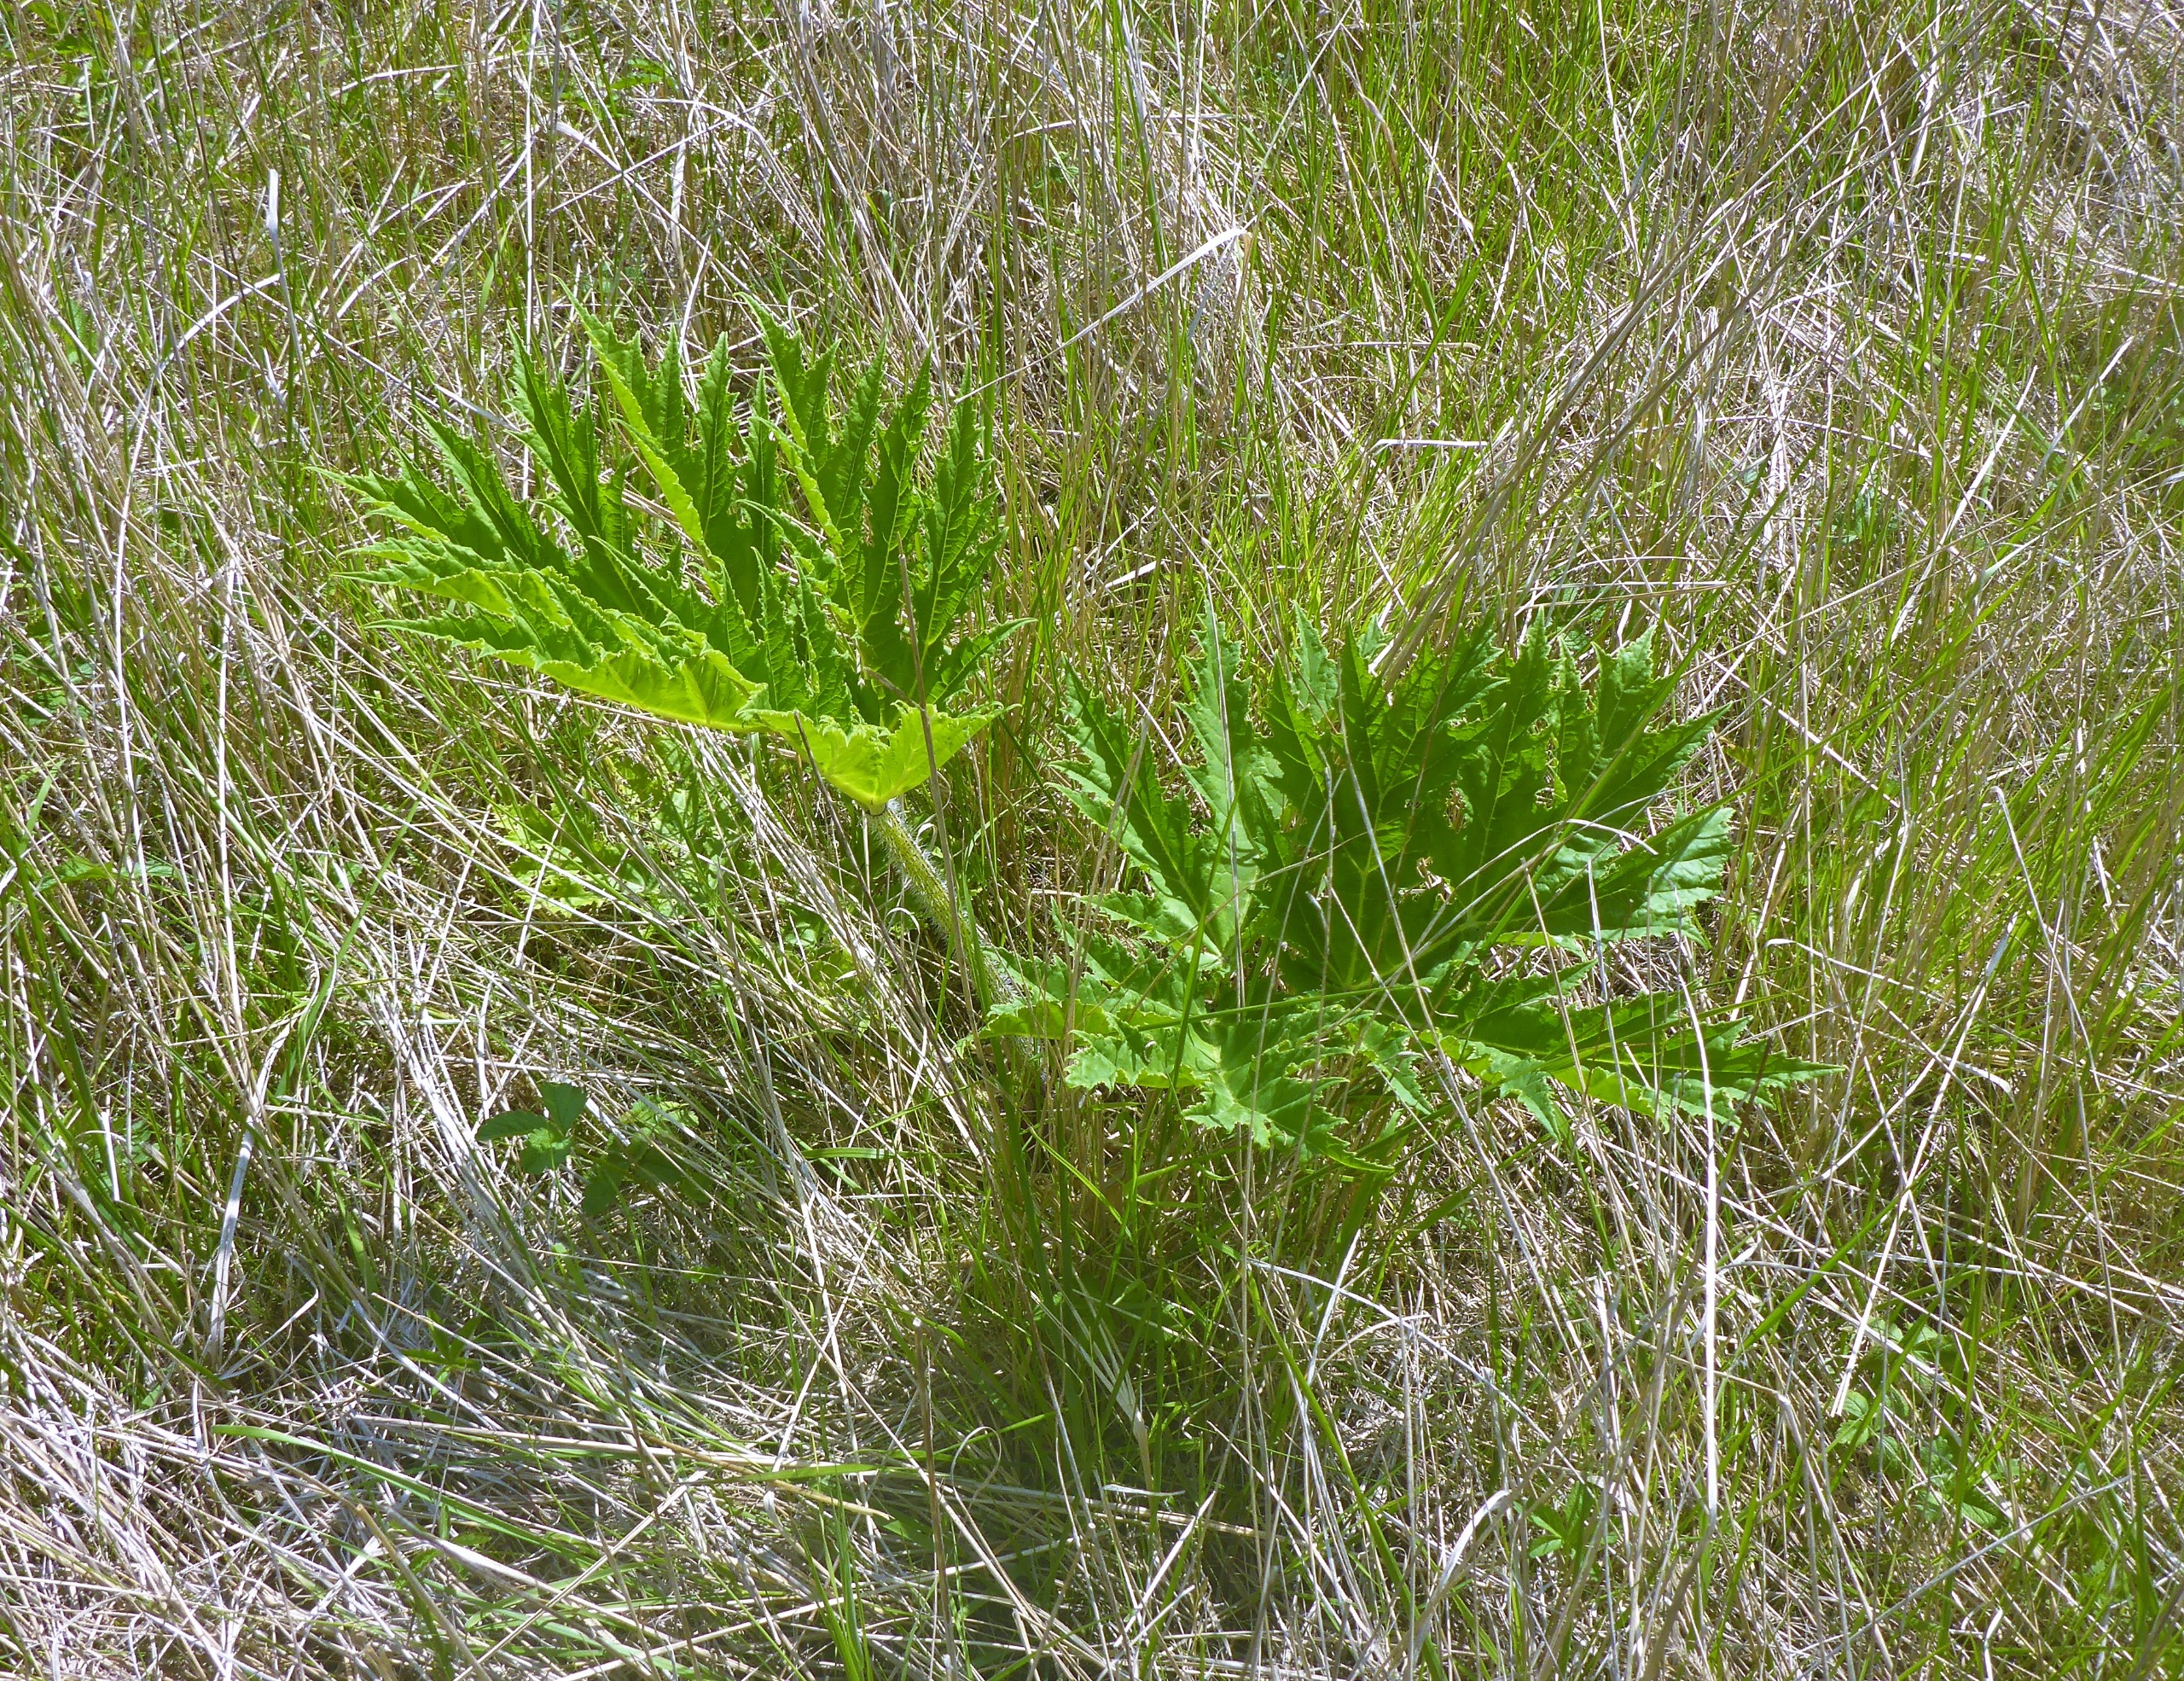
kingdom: Plantae
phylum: Tracheophyta
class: Magnoliopsida
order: Apiales
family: Apiaceae
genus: Heracleum
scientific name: Heracleum mantegazzianum
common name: Kæmpe-bjørneklo
